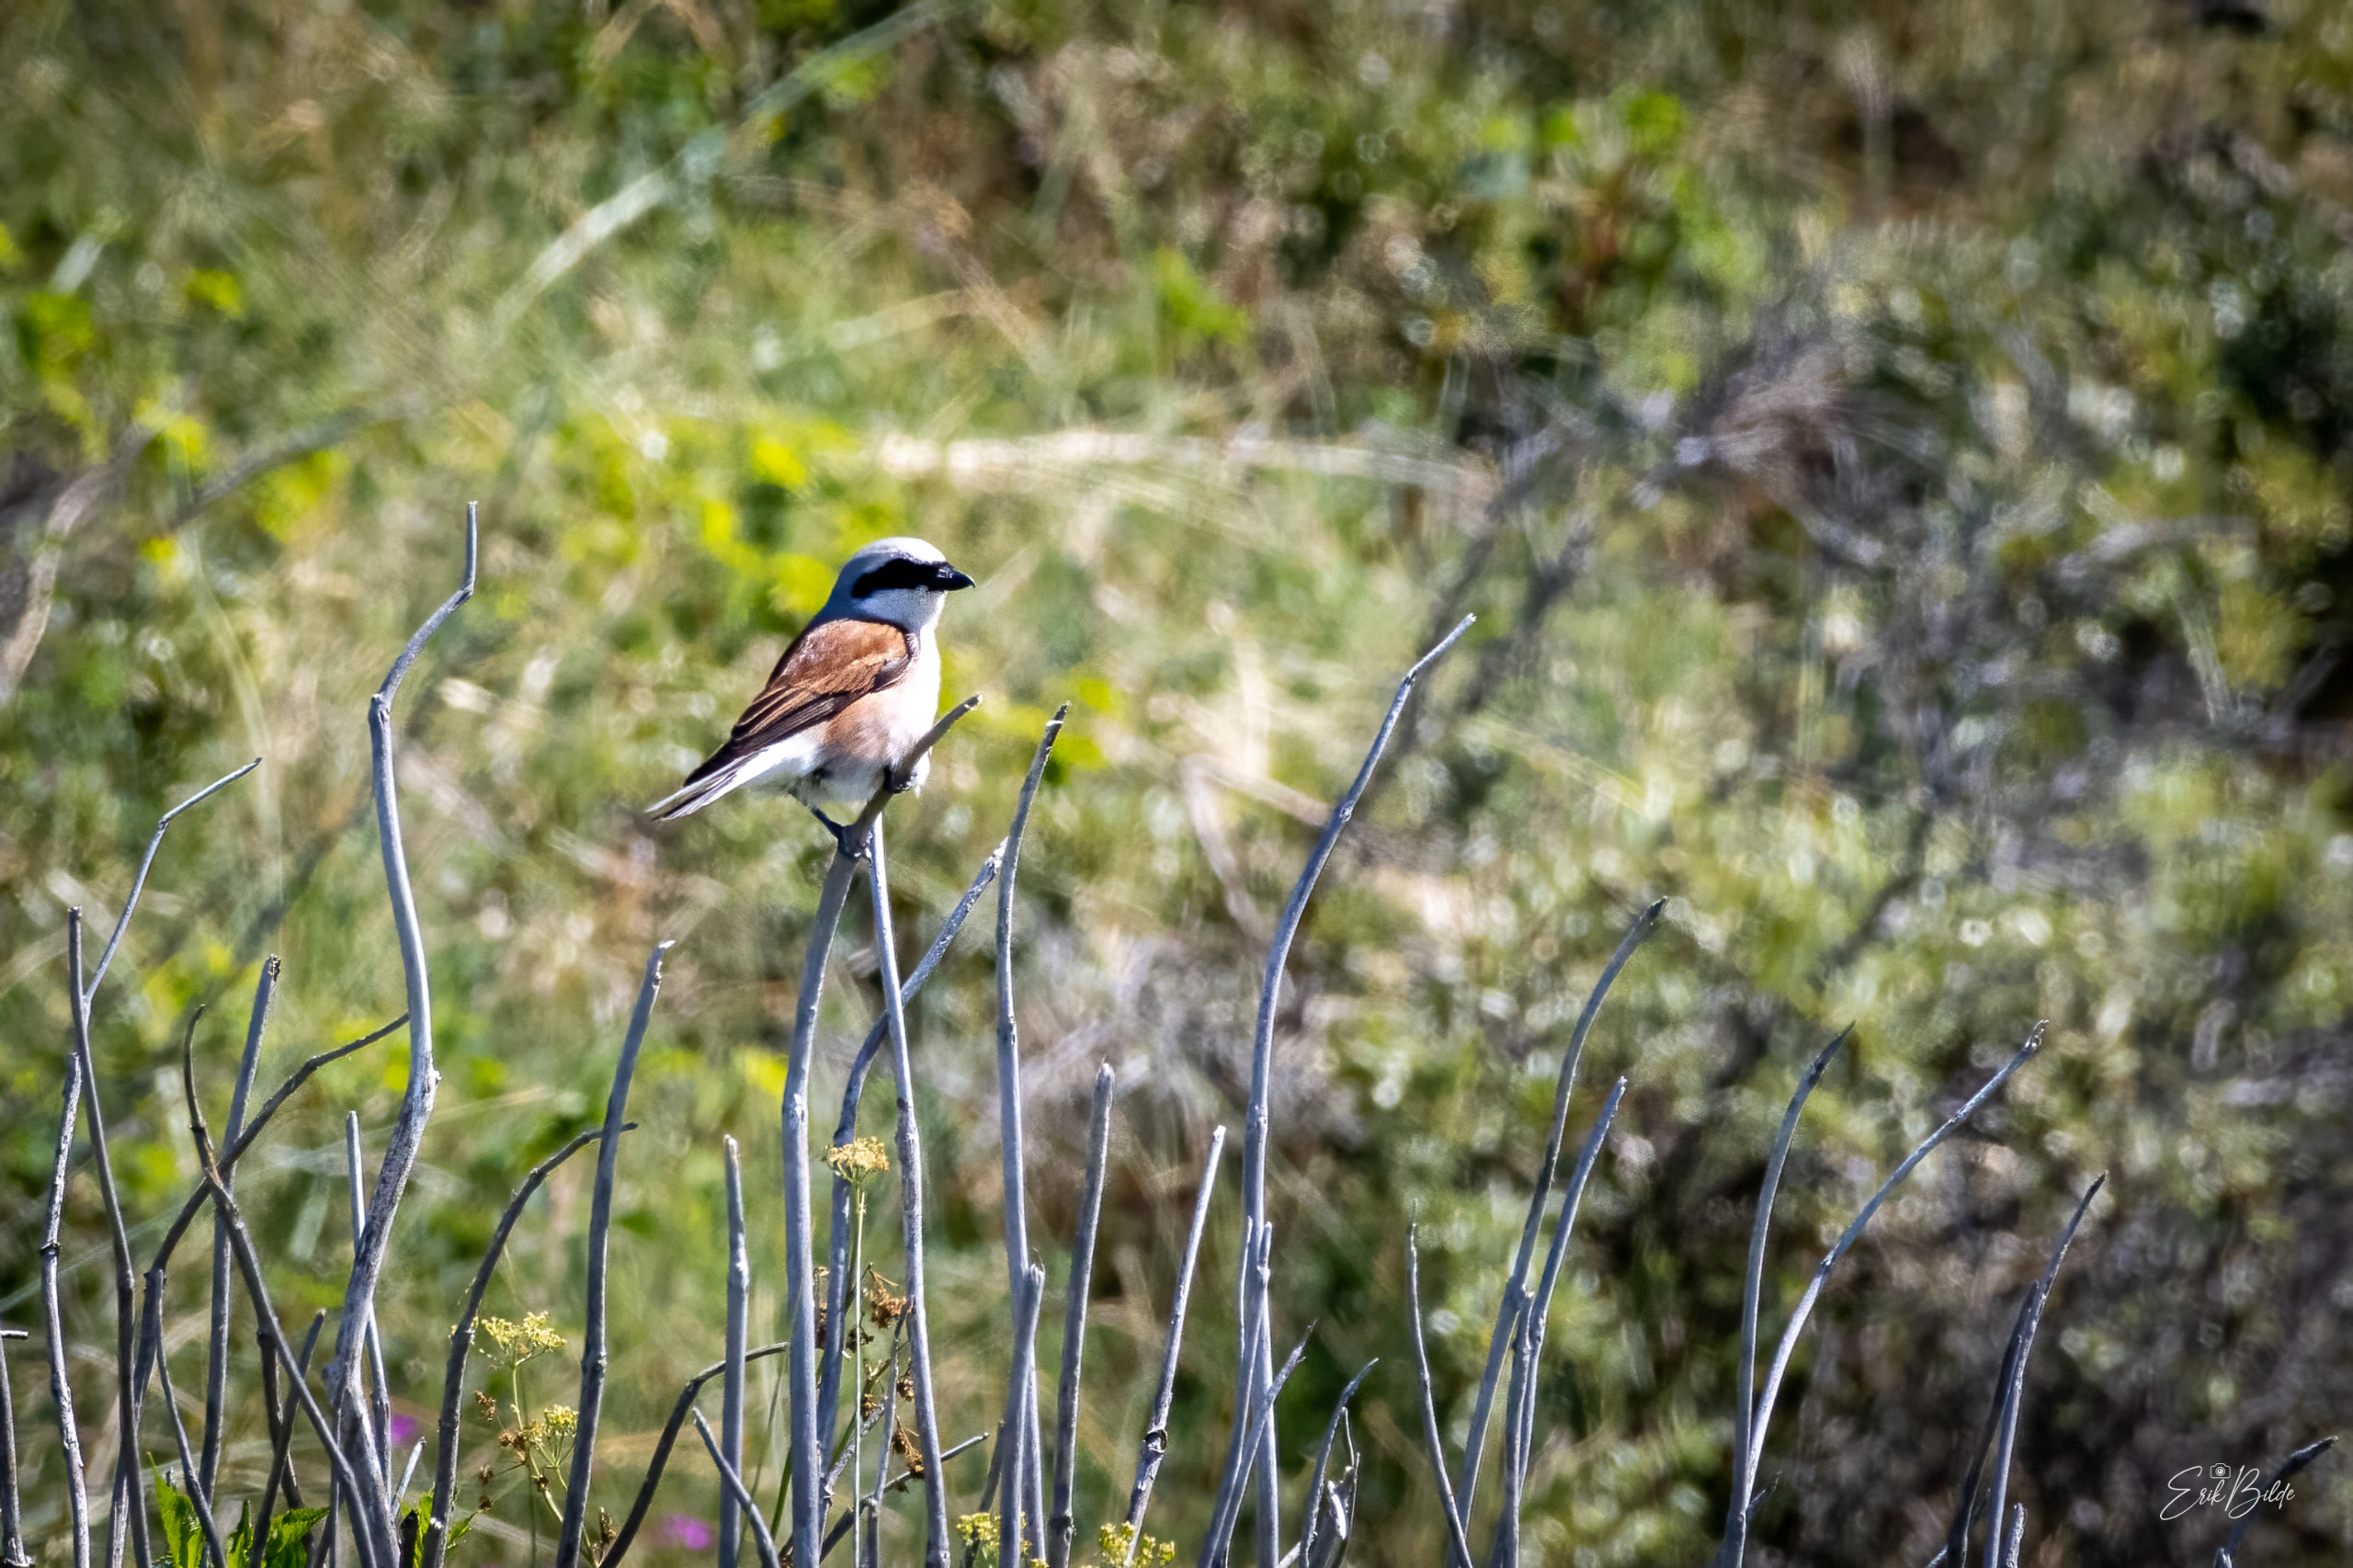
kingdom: Animalia
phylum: Chordata
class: Aves
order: Passeriformes
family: Laniidae
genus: Lanius
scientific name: Lanius collurio
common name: Rødrygget tornskade
